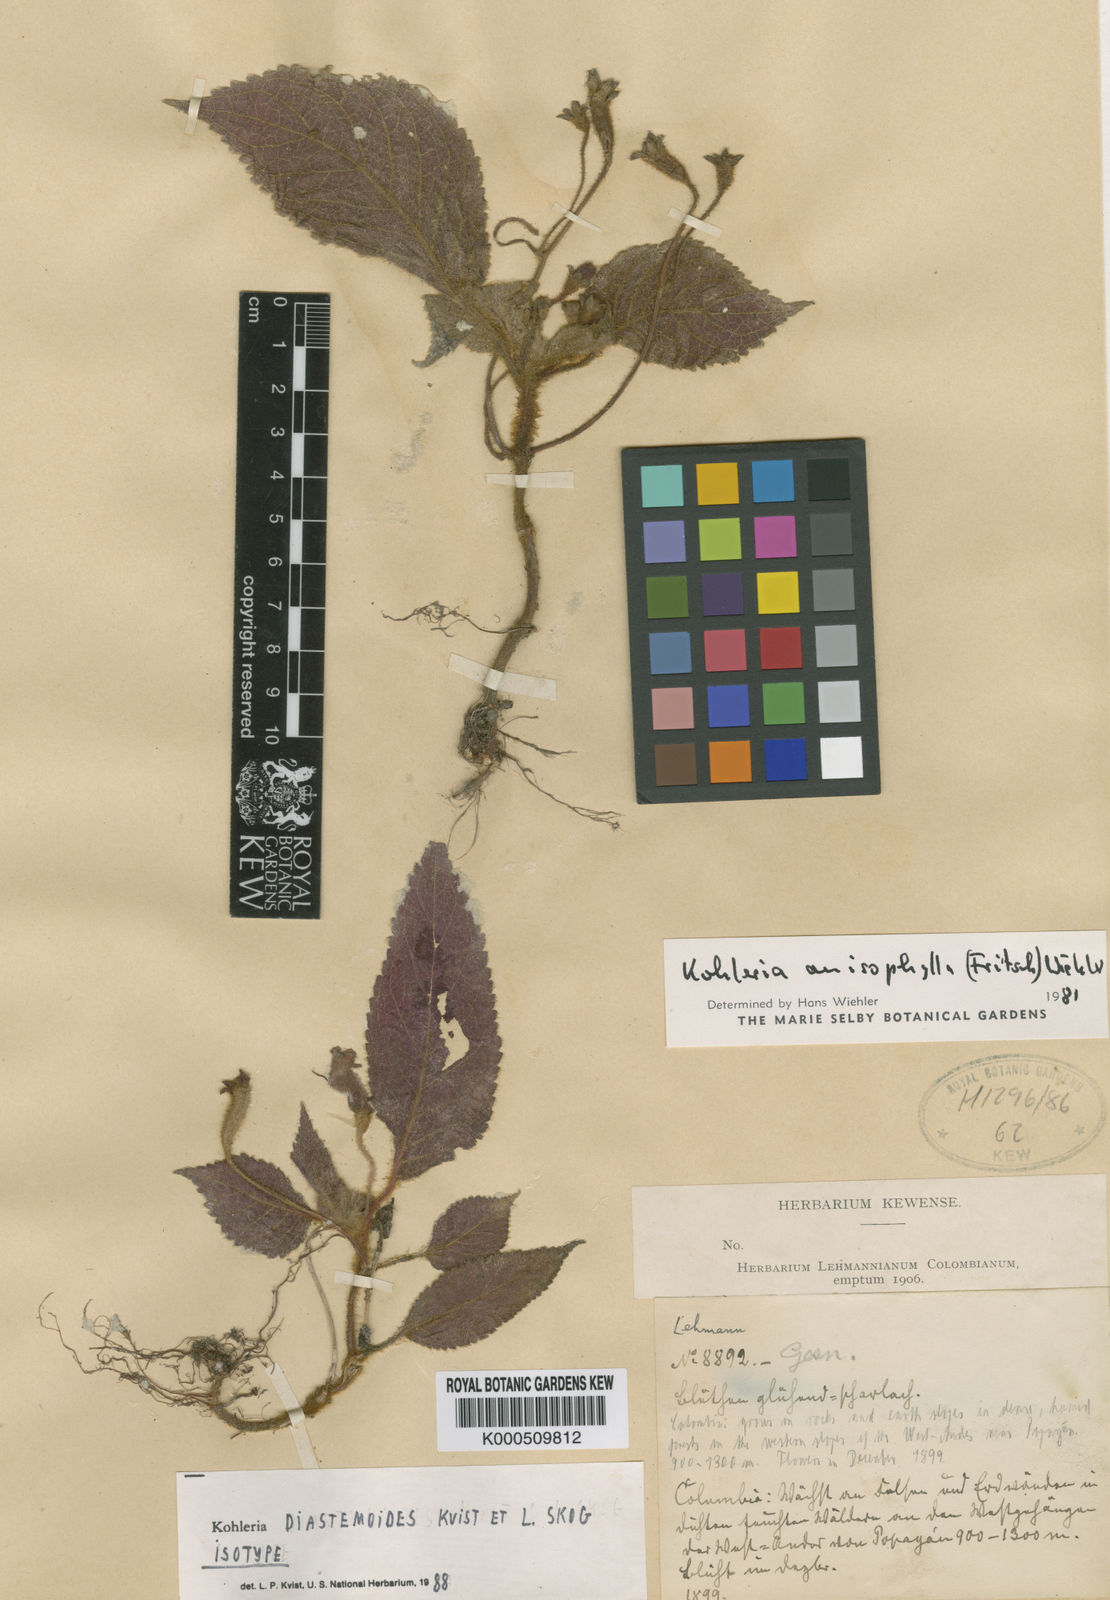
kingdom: Plantae
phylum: Tracheophyta
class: Magnoliopsida
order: Lamiales
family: Gesneriaceae
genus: Kohleria
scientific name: Kohleria diastemoides
